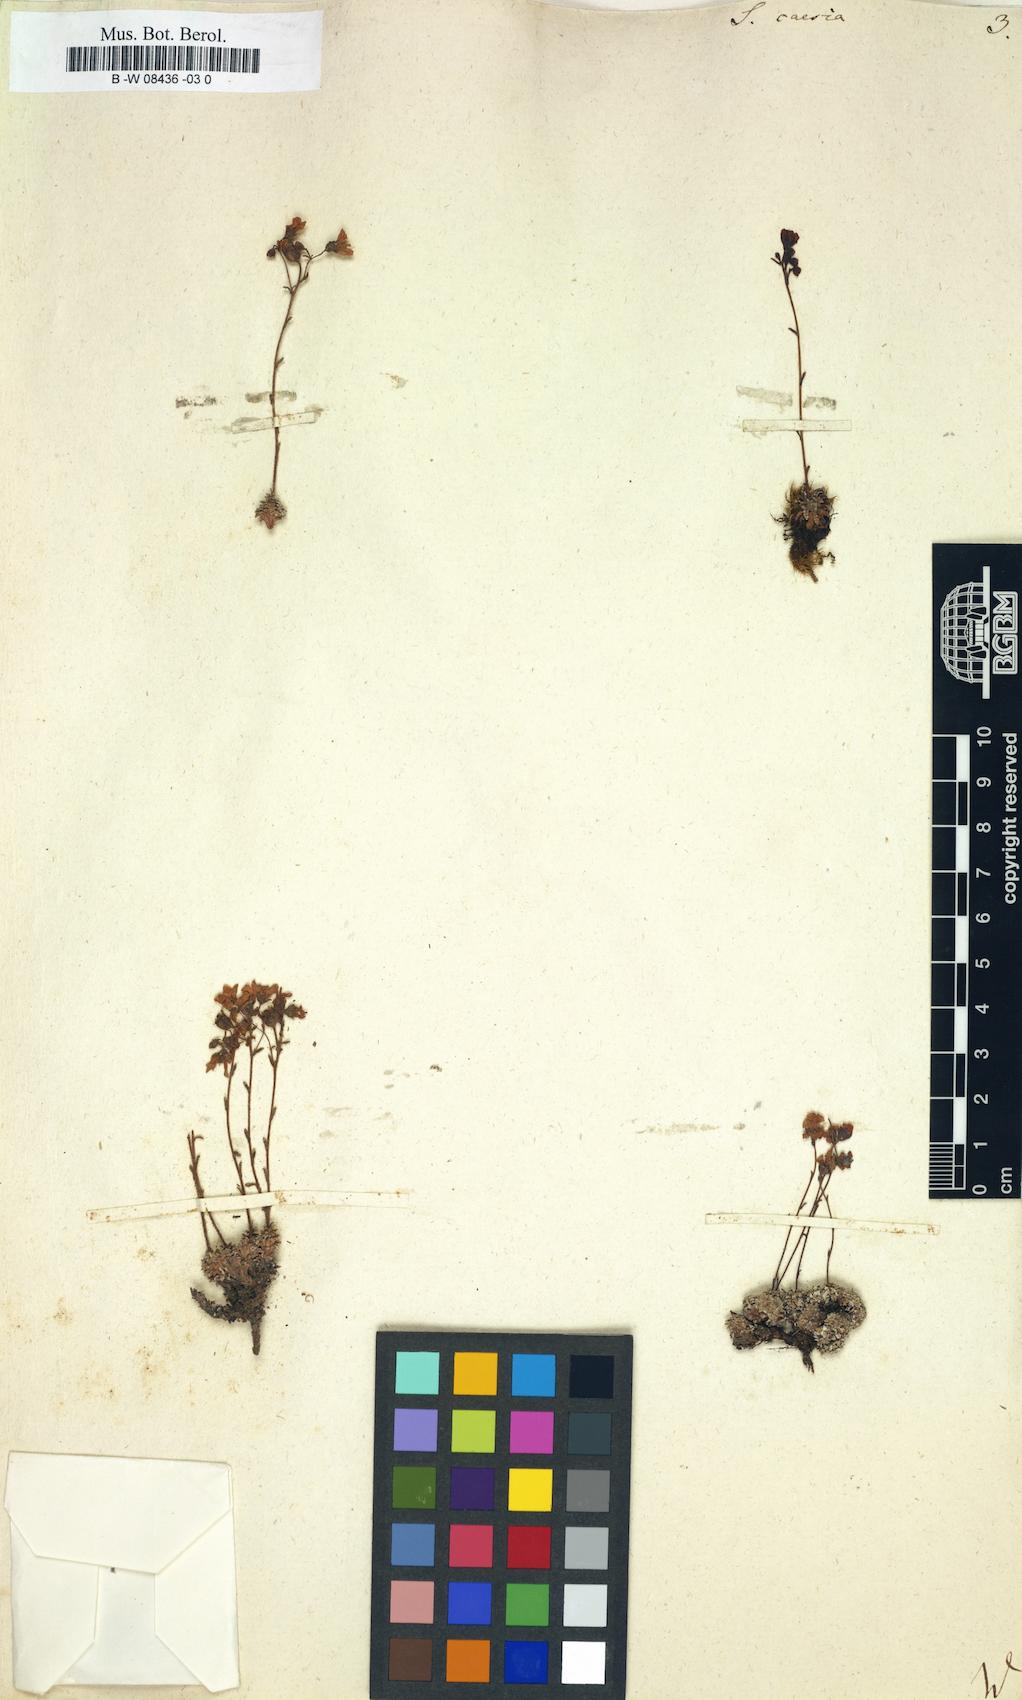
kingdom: Plantae
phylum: Tracheophyta
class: Magnoliopsida
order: Saxifragales
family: Saxifragaceae
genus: Saxifraga
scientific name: Saxifraga caesia
